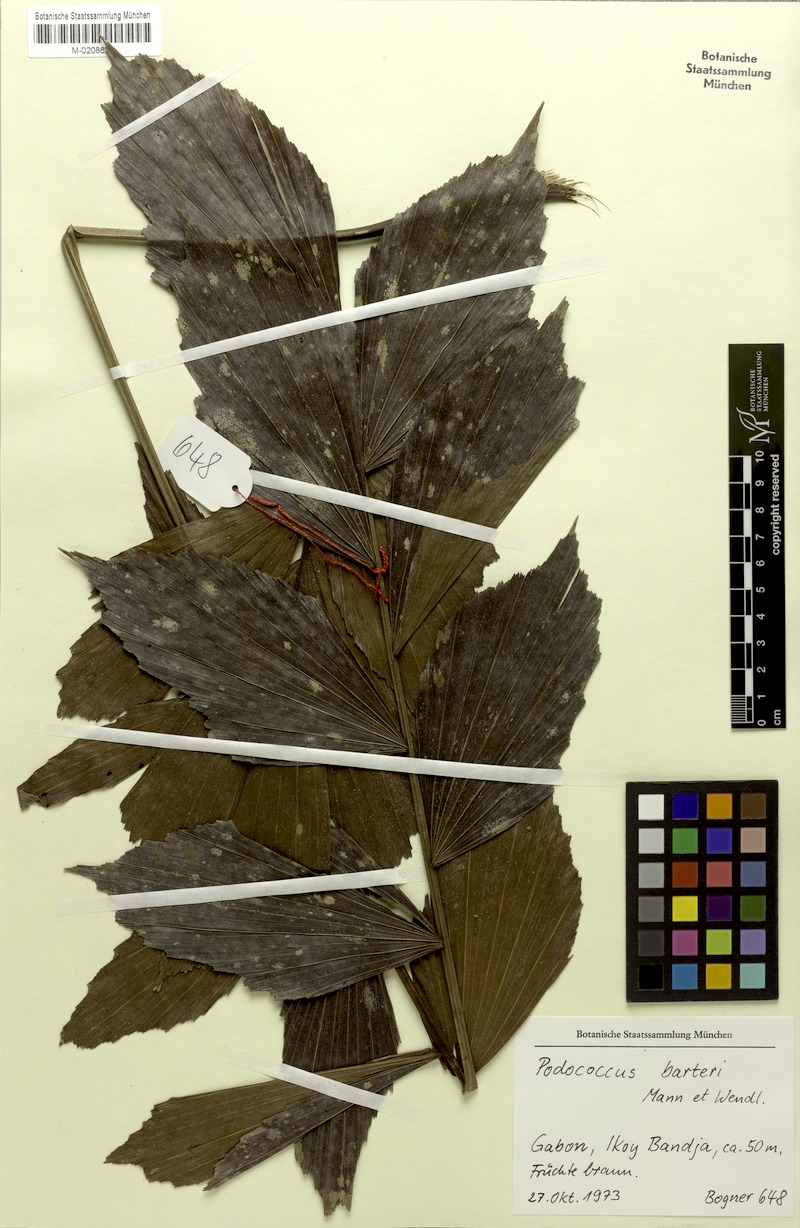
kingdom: Plantae
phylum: Tracheophyta
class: Liliopsida
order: Arecales
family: Arecaceae
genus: Podococcus
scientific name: Podococcus barteri
